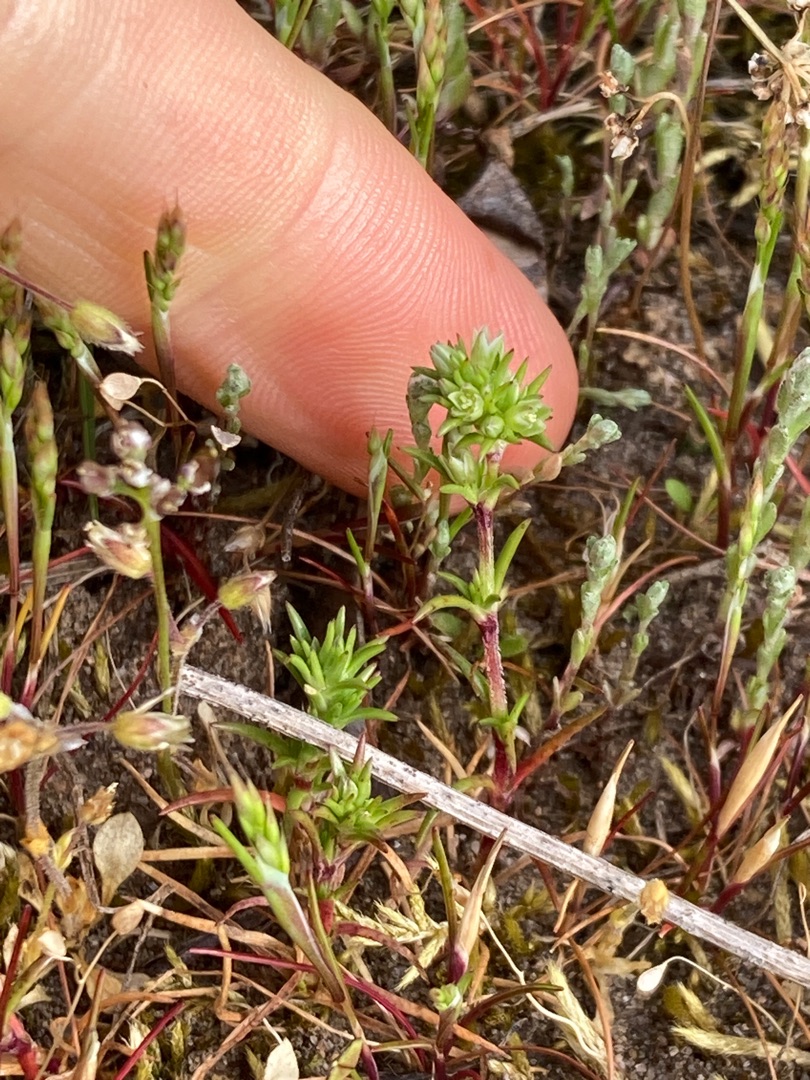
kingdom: Plantae
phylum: Tracheophyta
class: Magnoliopsida
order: Caryophyllales
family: Caryophyllaceae
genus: Scleranthus
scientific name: Scleranthus annuus
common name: Enårig knavel
